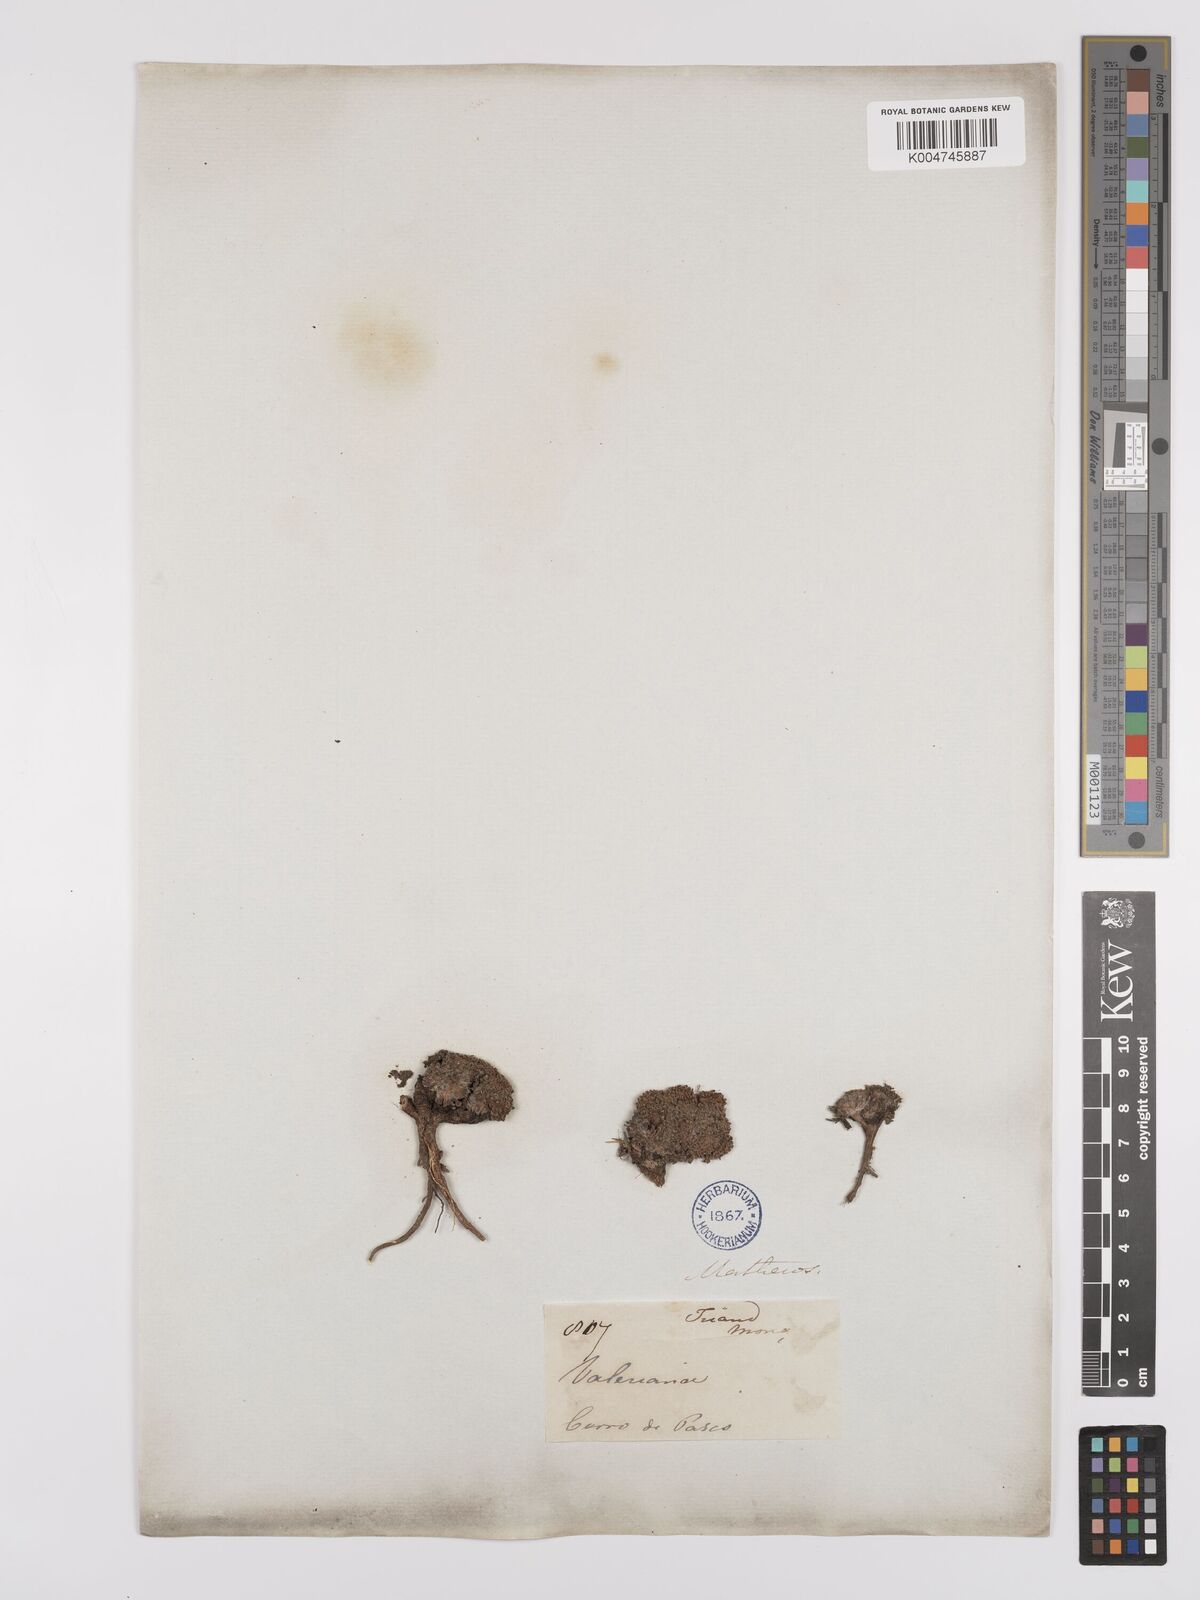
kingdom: Plantae
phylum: Tracheophyta
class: Magnoliopsida
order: Asterales
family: Asteraceae
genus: Phyllactis
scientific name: Phyllactis
